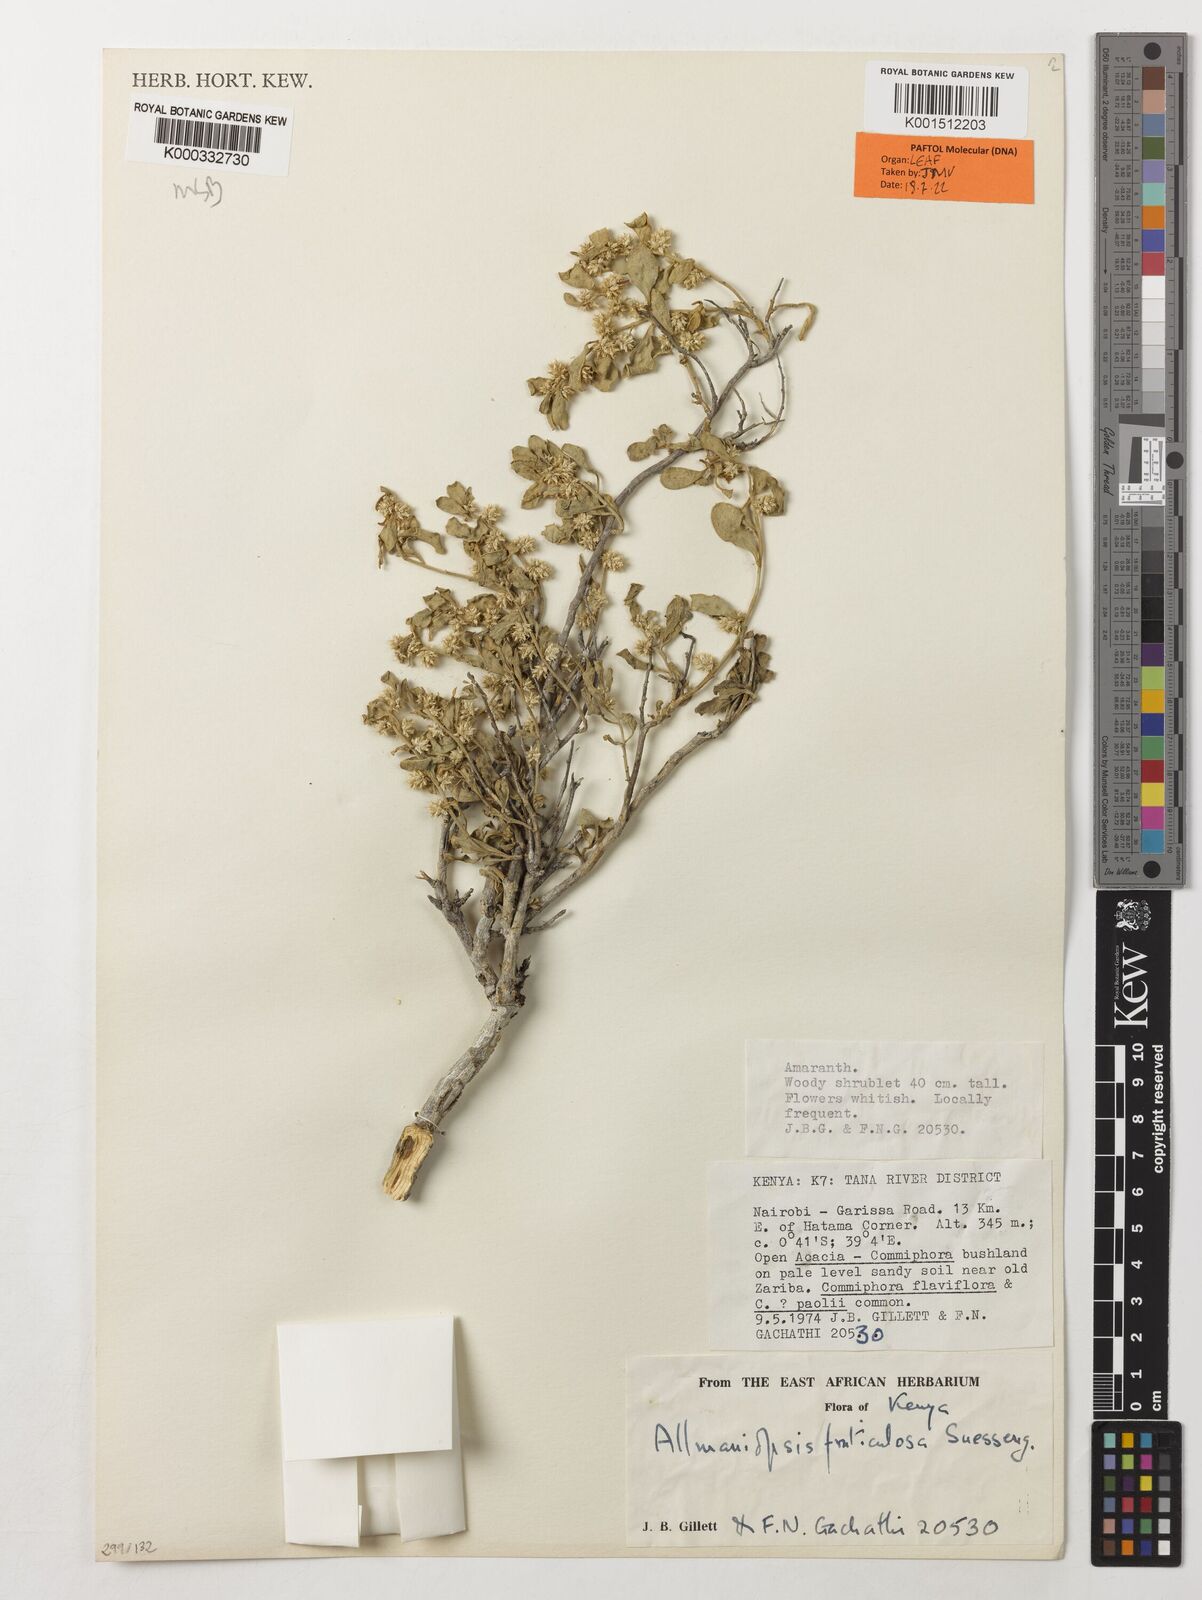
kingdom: Plantae
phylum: Tracheophyta
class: Magnoliopsida
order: Caryophyllales
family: Amaranthaceae
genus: Allmaniopsis
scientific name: Allmaniopsis fruticulosa
